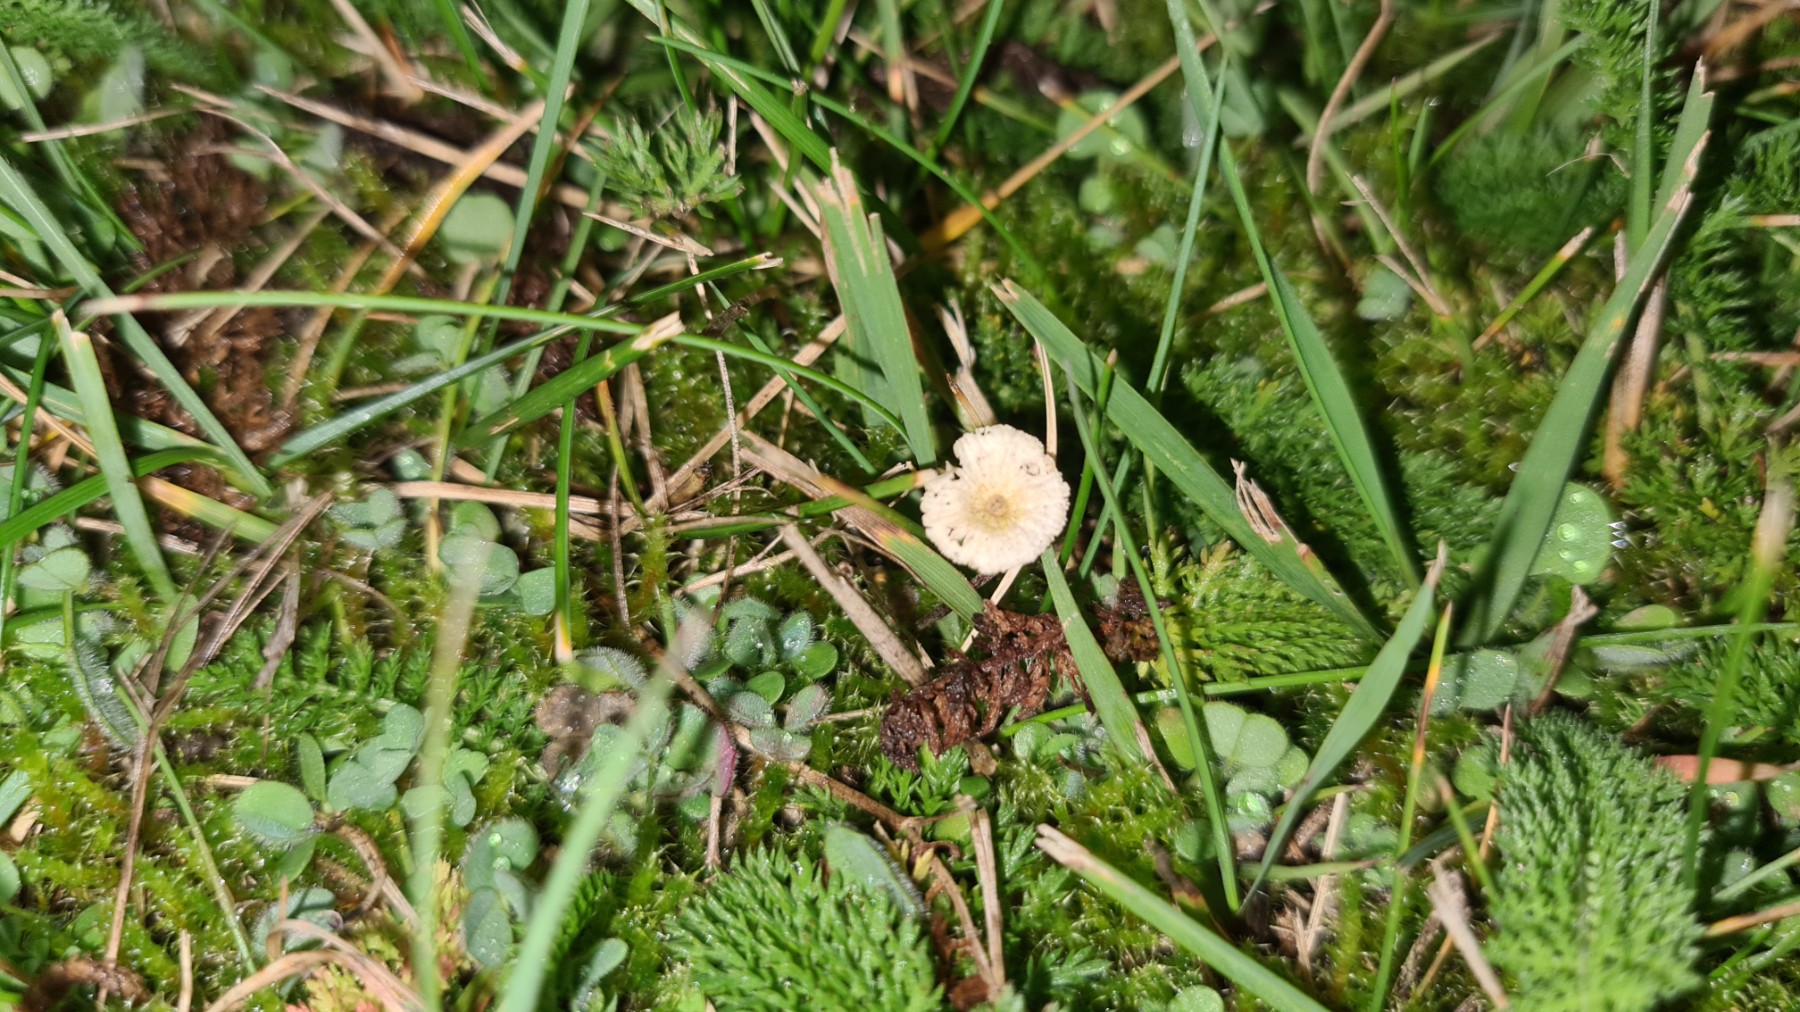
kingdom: Fungi
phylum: Basidiomycota
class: Agaricomycetes
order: Agaricales
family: Omphalotaceae
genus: Marasmiellus
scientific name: Marasmiellus
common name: bruskhat
